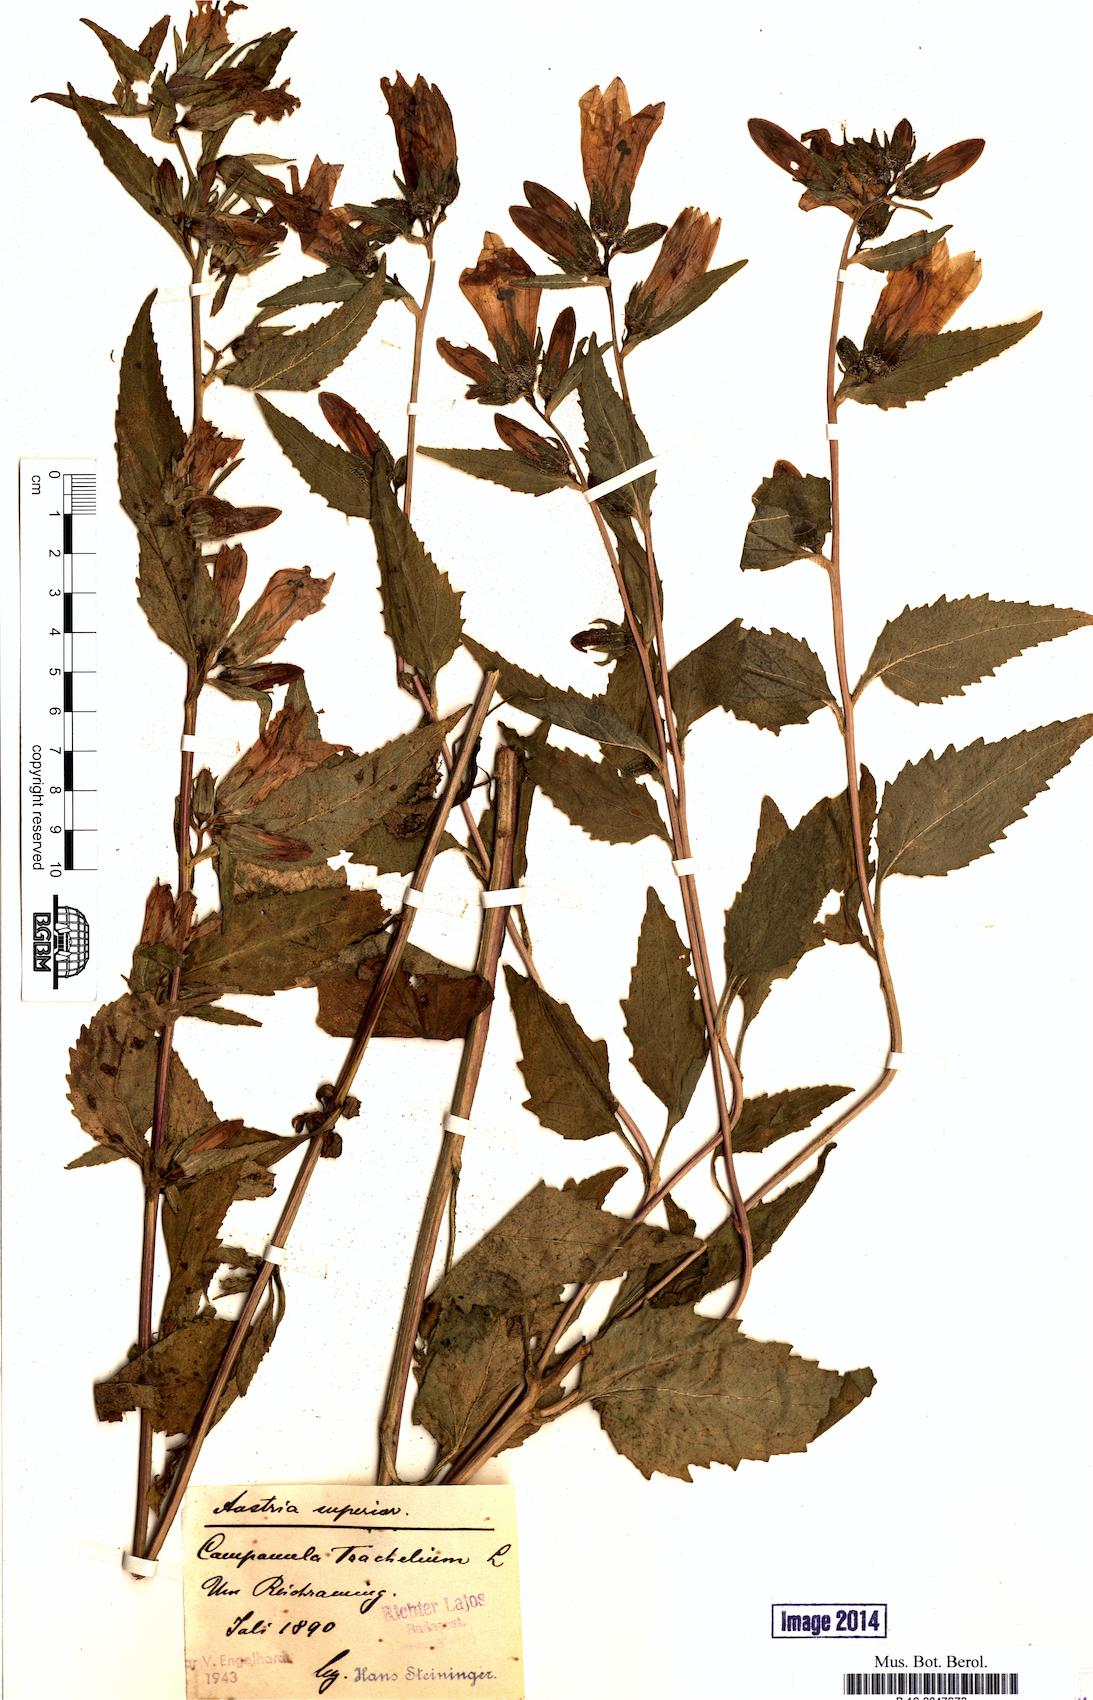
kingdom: Plantae
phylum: Tracheophyta
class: Magnoliopsida
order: Asterales
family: Campanulaceae
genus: Campanula
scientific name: Campanula trachelium
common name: Nettle-leaved bellflower
